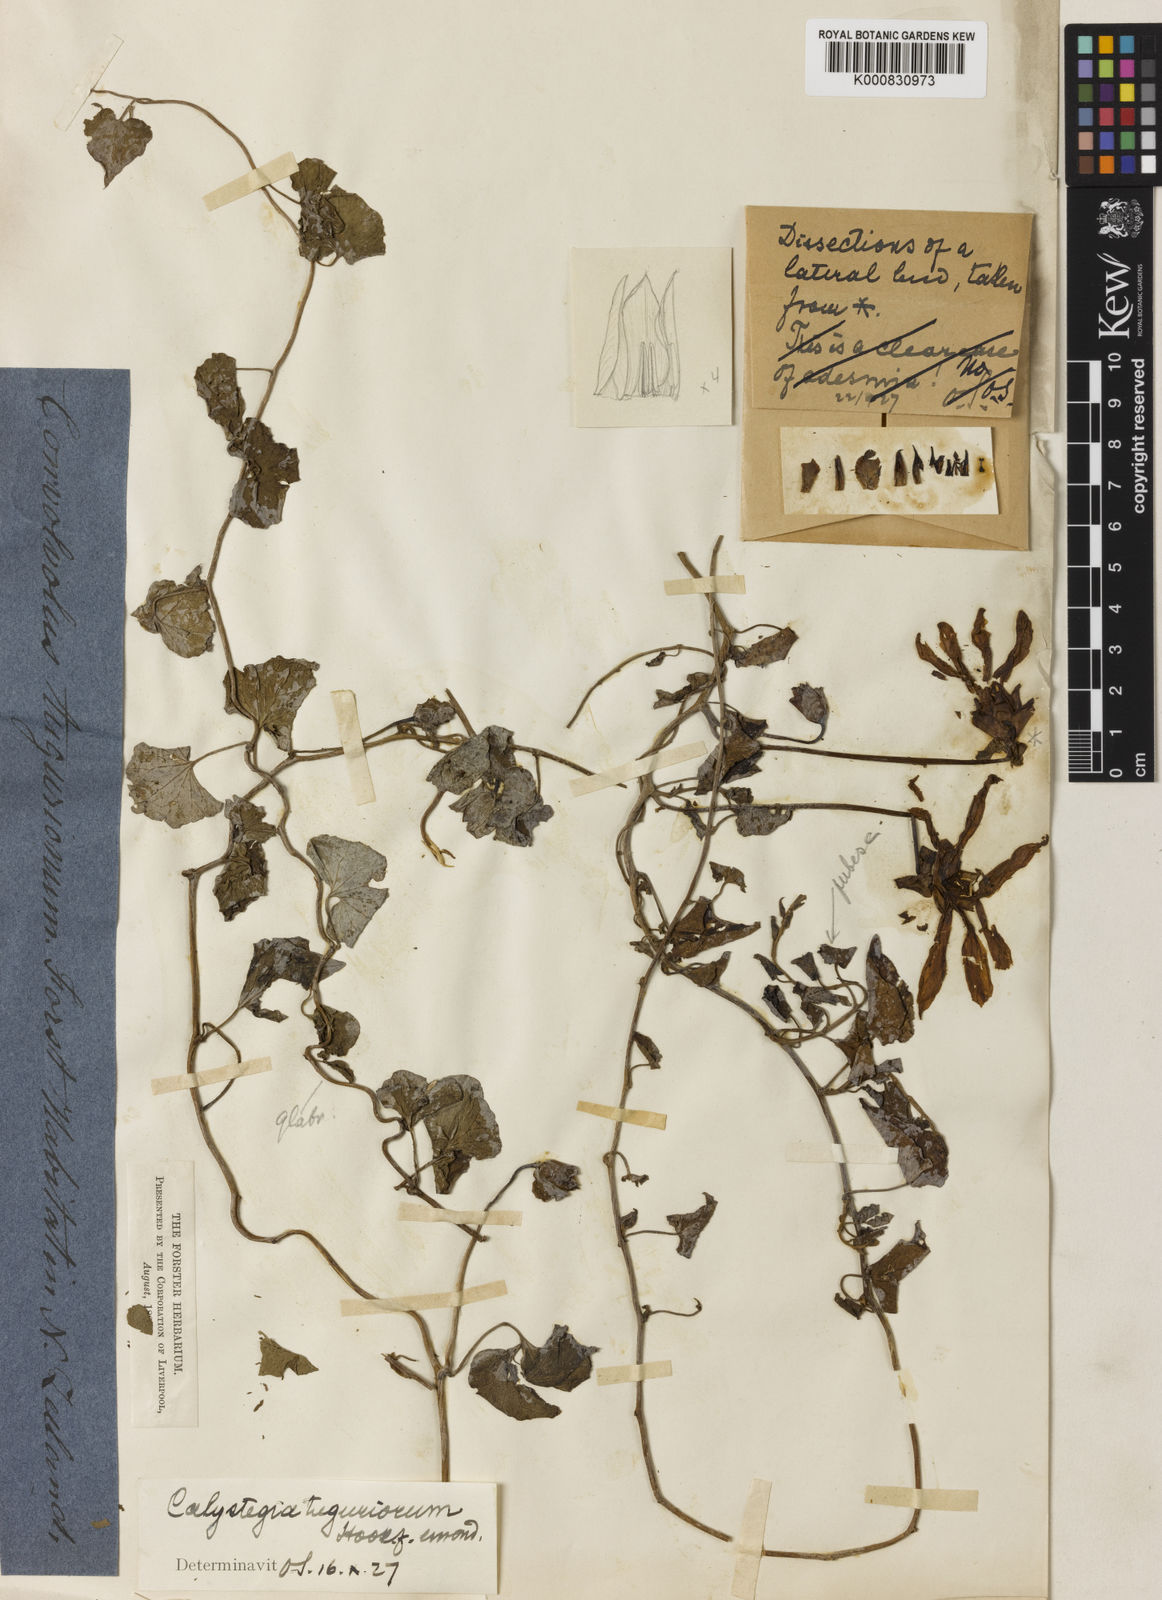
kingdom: Plantae
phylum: Tracheophyta
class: Magnoliopsida
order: Solanales
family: Convolvulaceae
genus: Calystegia
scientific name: Calystegia tuguriorum
